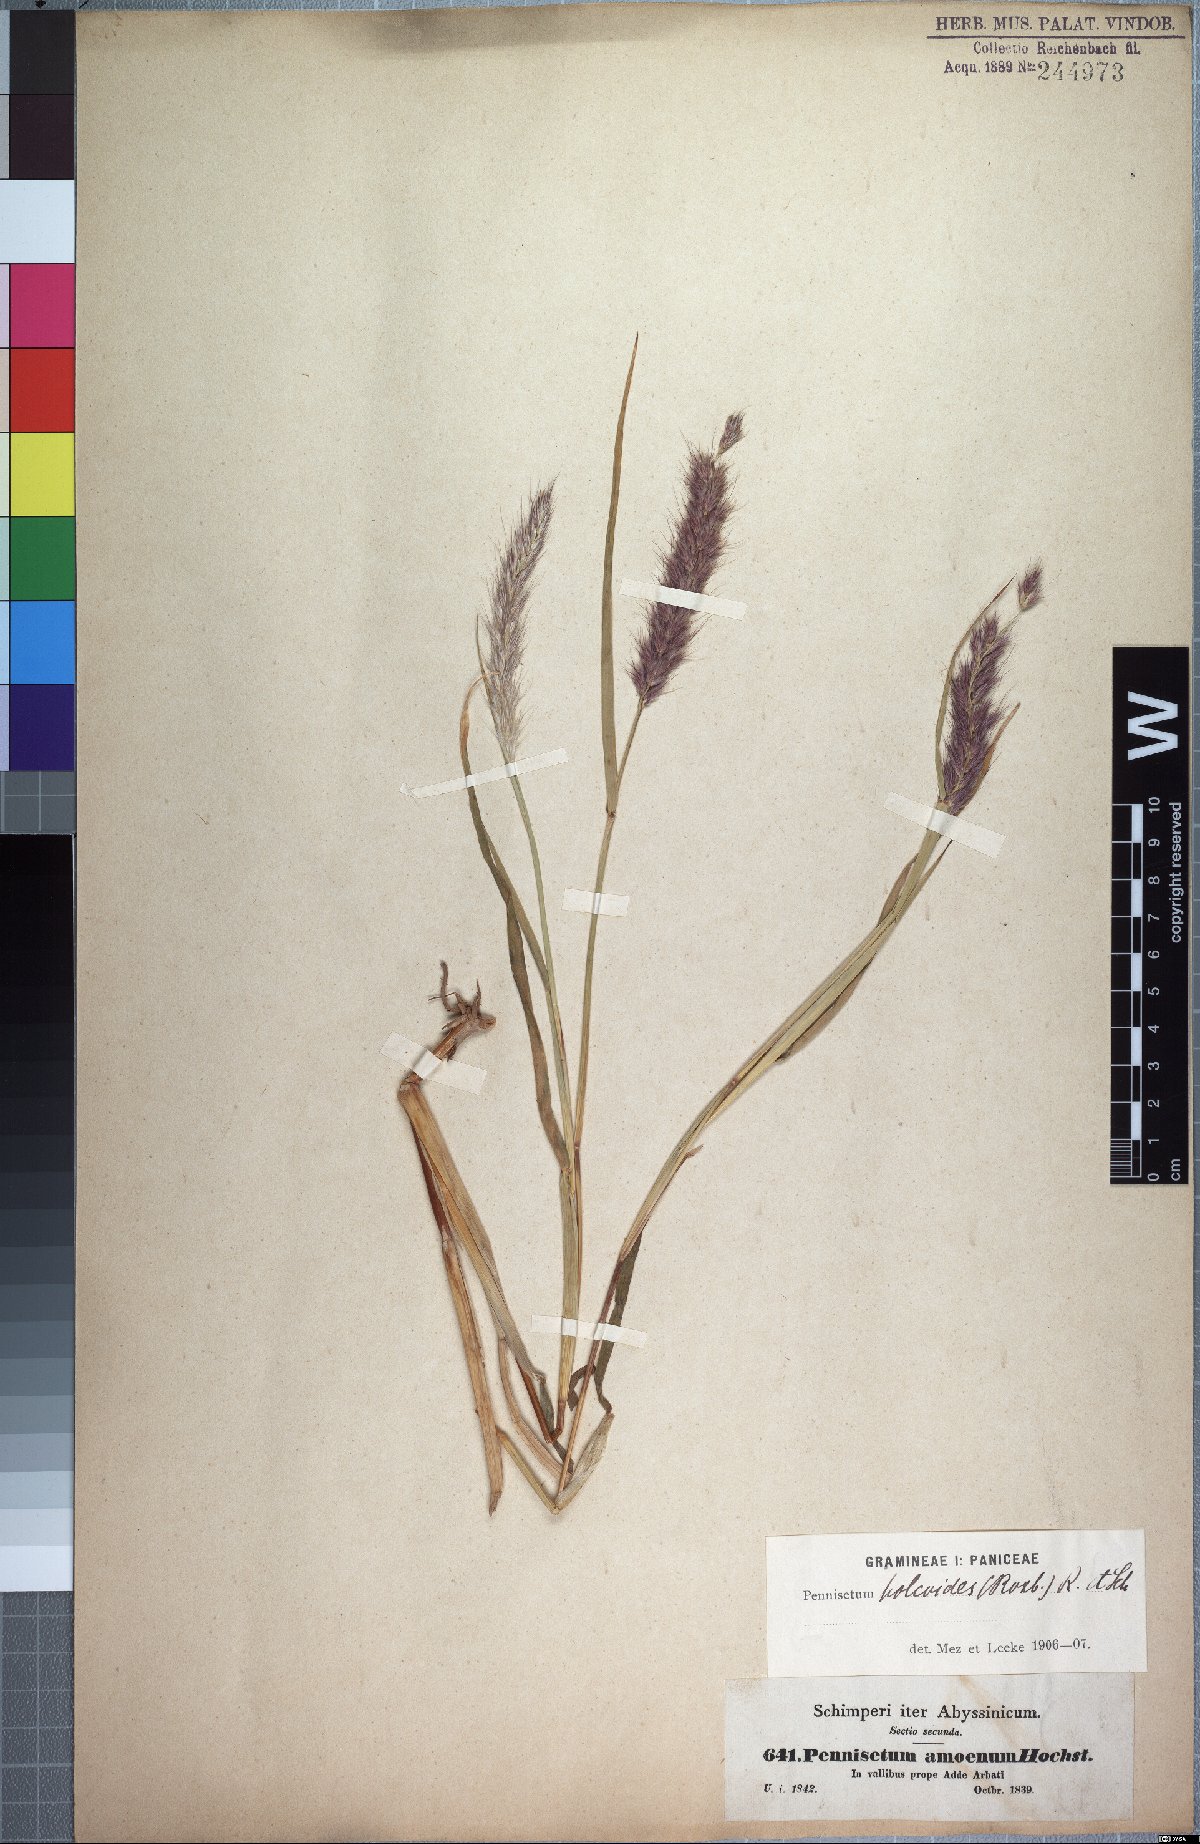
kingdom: Plantae
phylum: Tracheophyta
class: Liliopsida
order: Poales
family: Poaceae
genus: Cenchrus
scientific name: Cenchrus pedicellatus
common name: Hairy fountain grass
